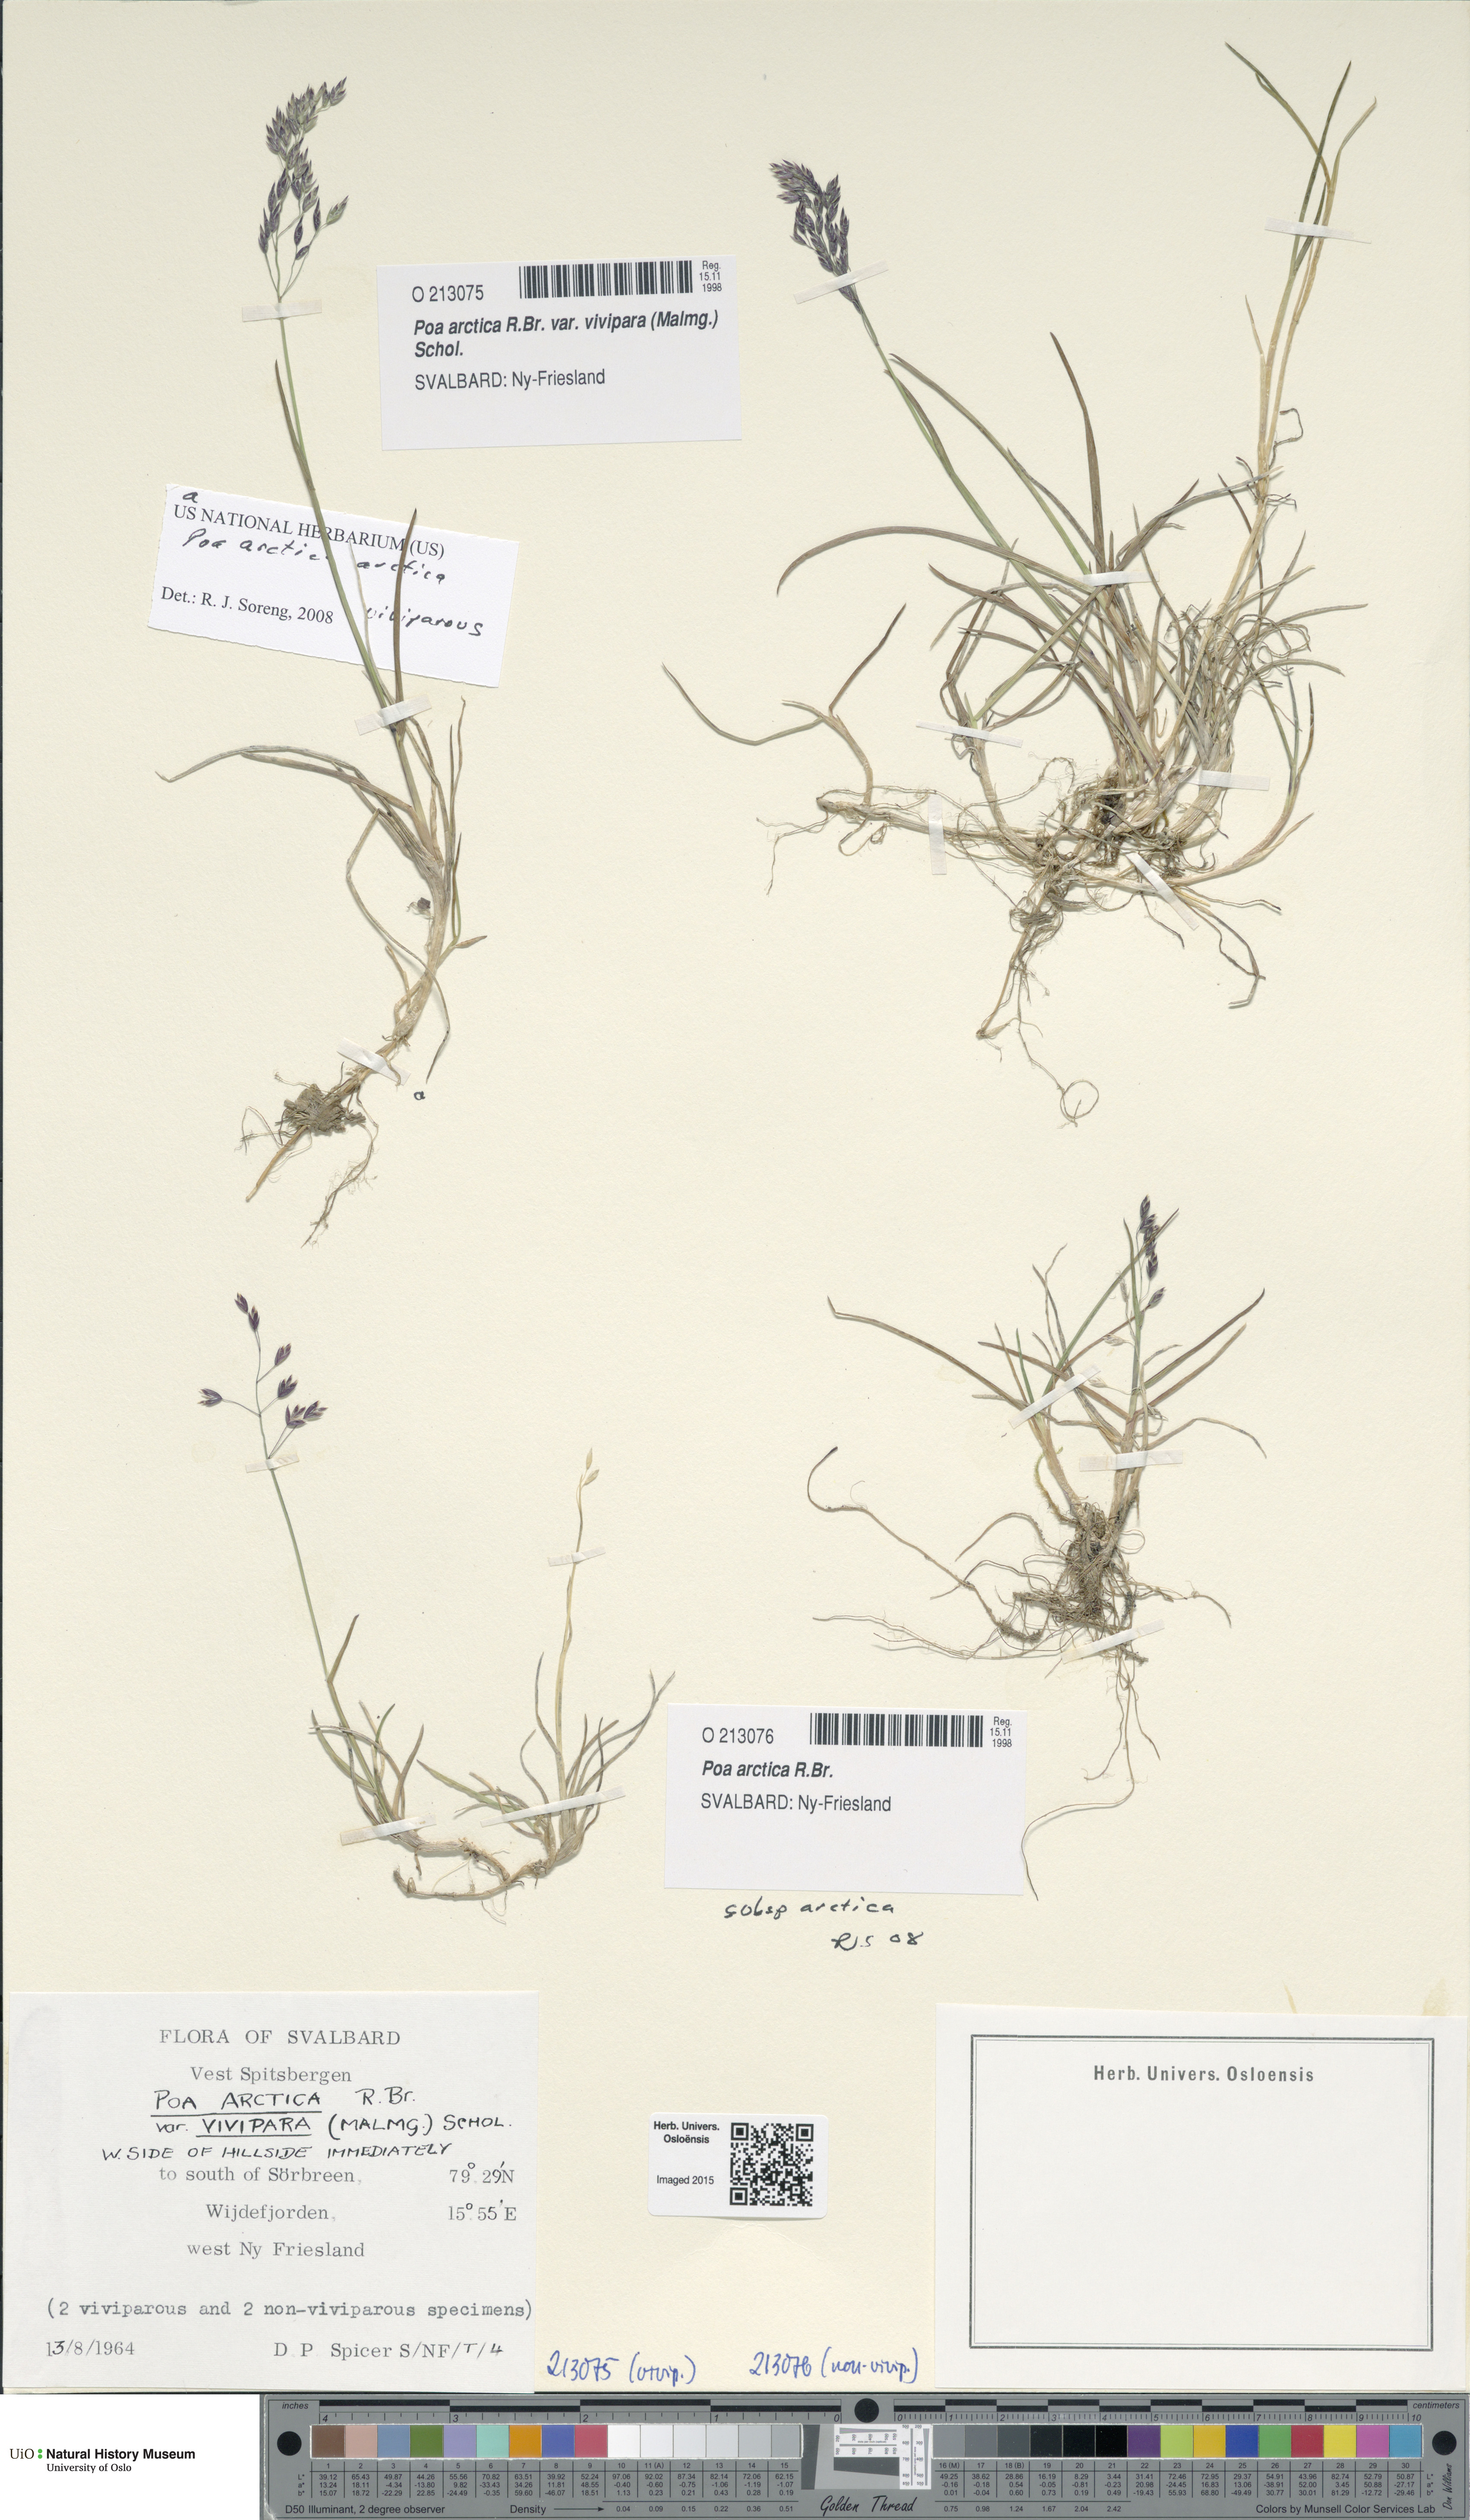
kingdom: Plantae
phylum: Tracheophyta
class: Liliopsida
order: Poales
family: Poaceae
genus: Poa
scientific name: Poa arctica
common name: Arctic bluegrass
